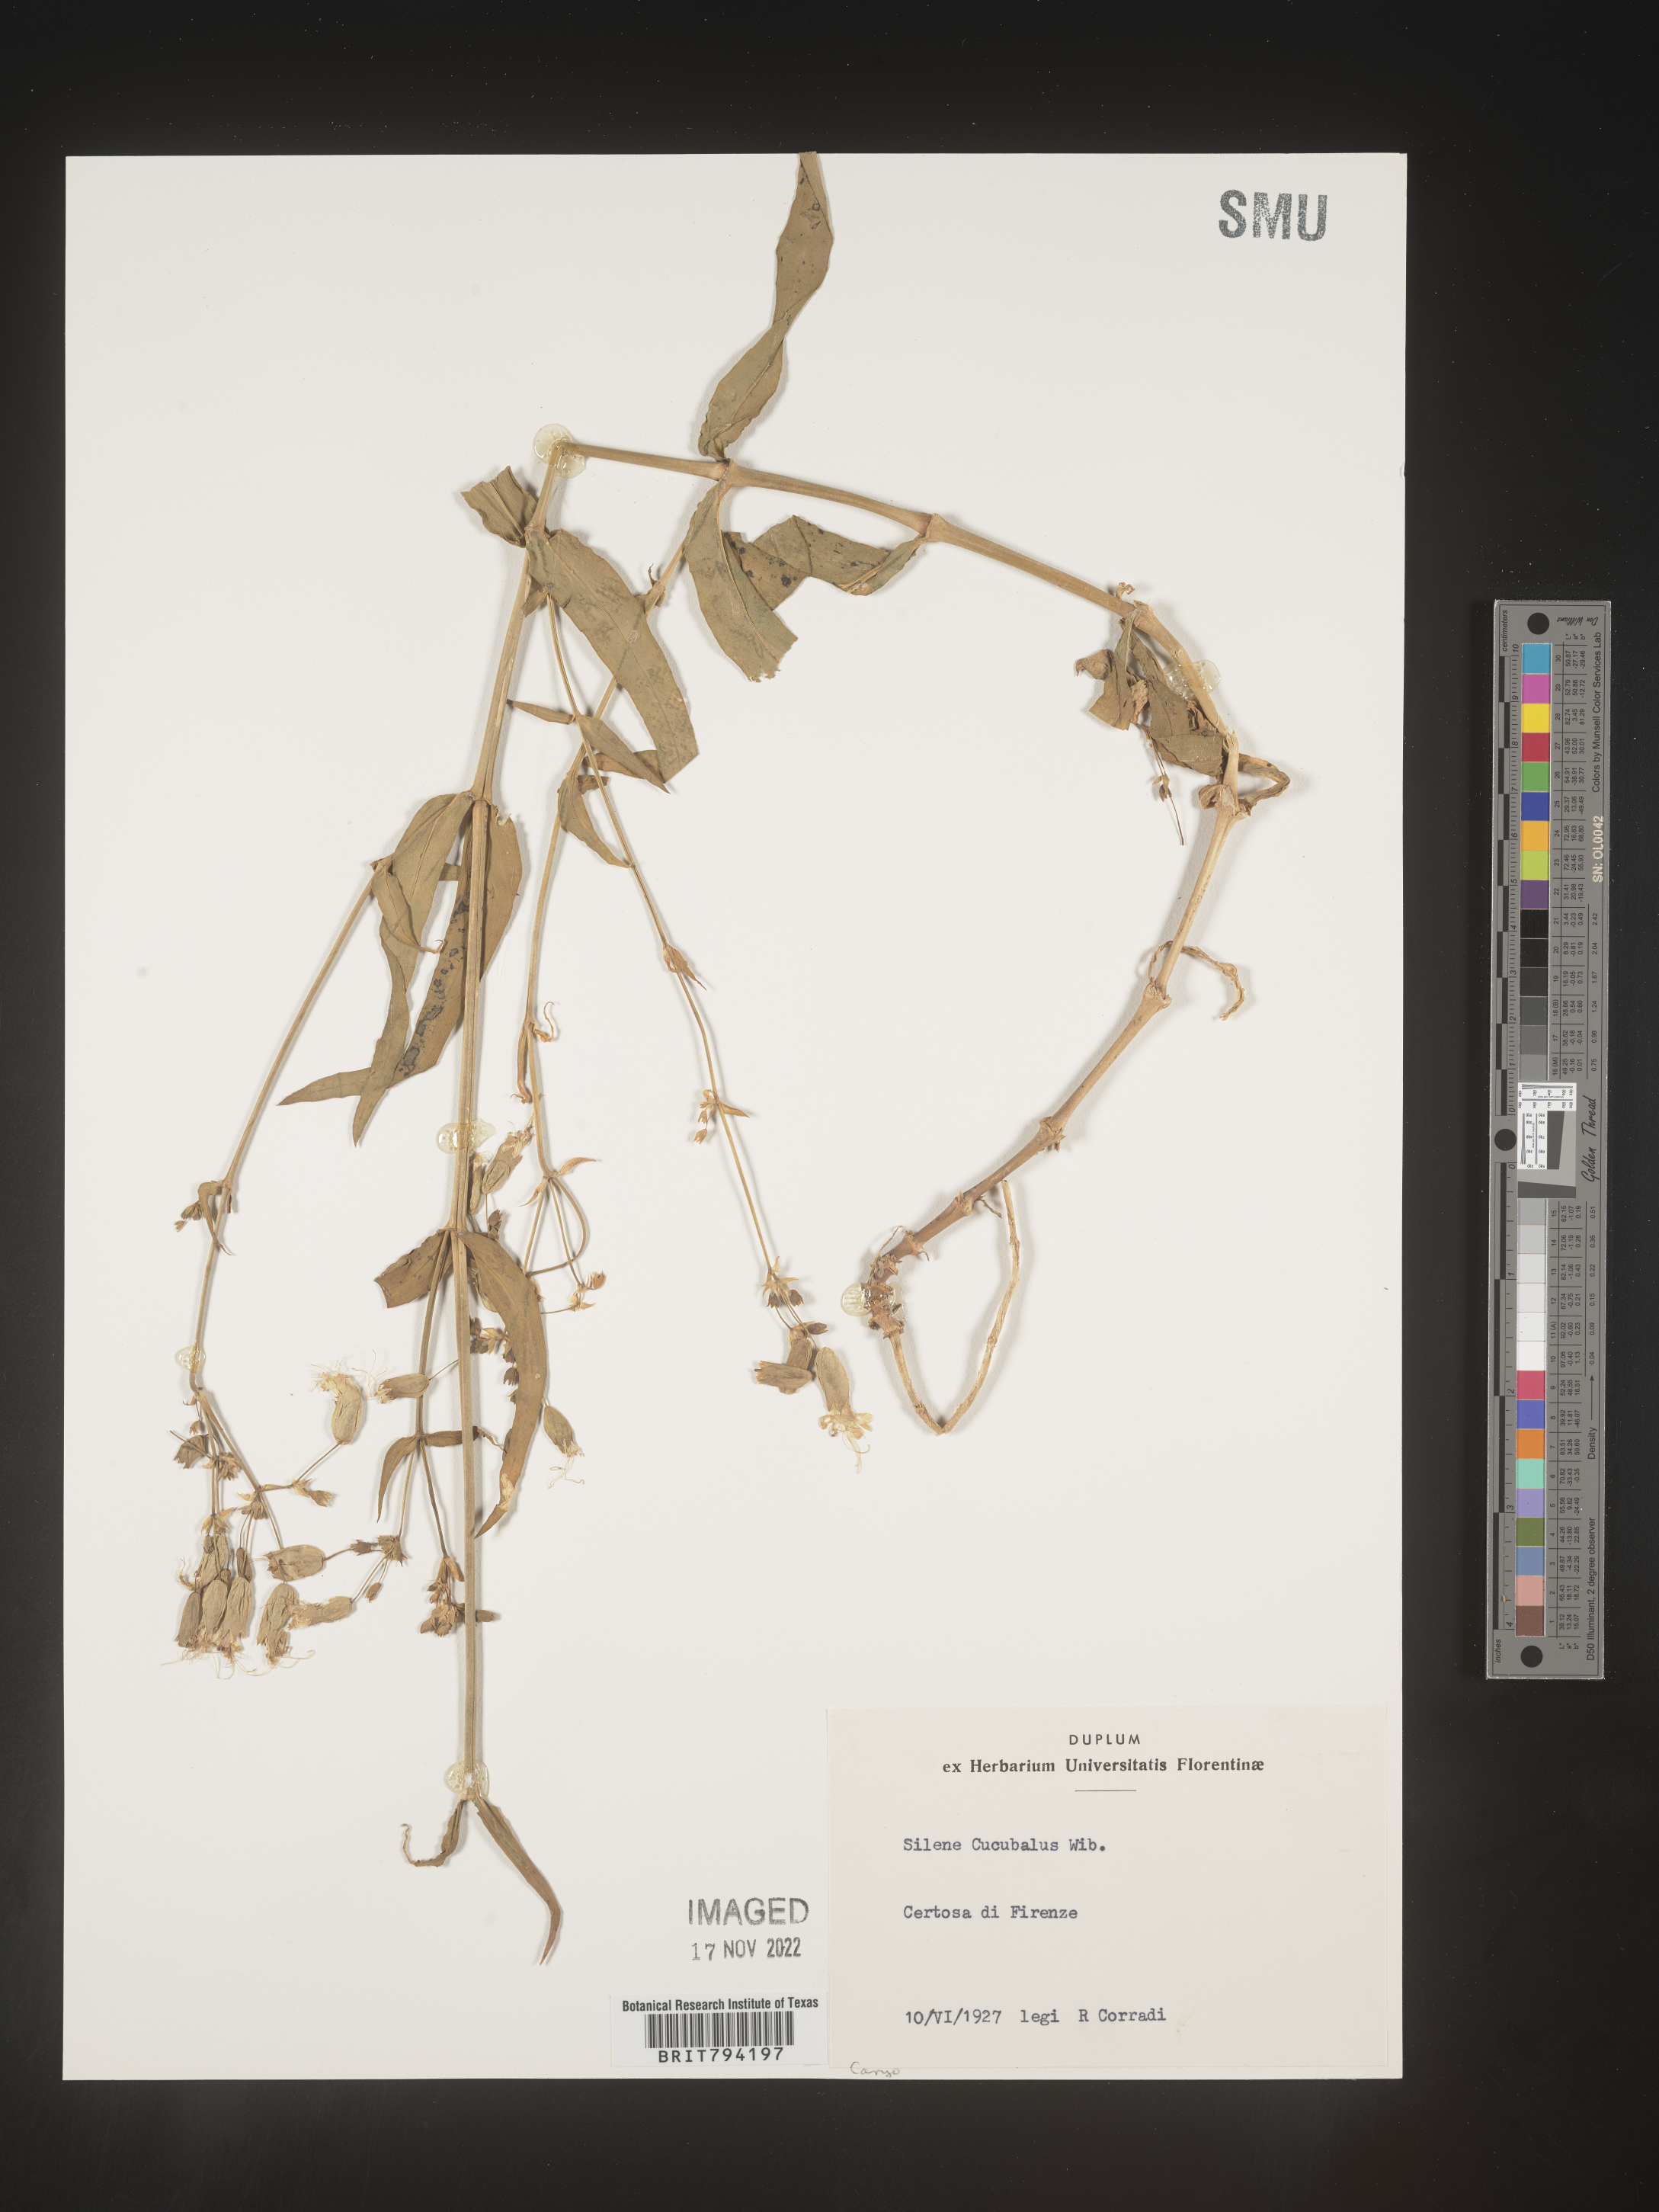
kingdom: Plantae
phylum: Tracheophyta
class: Magnoliopsida
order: Caryophyllales
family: Caryophyllaceae
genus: Silene
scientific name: Silene vulgaris
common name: Bladder campion
